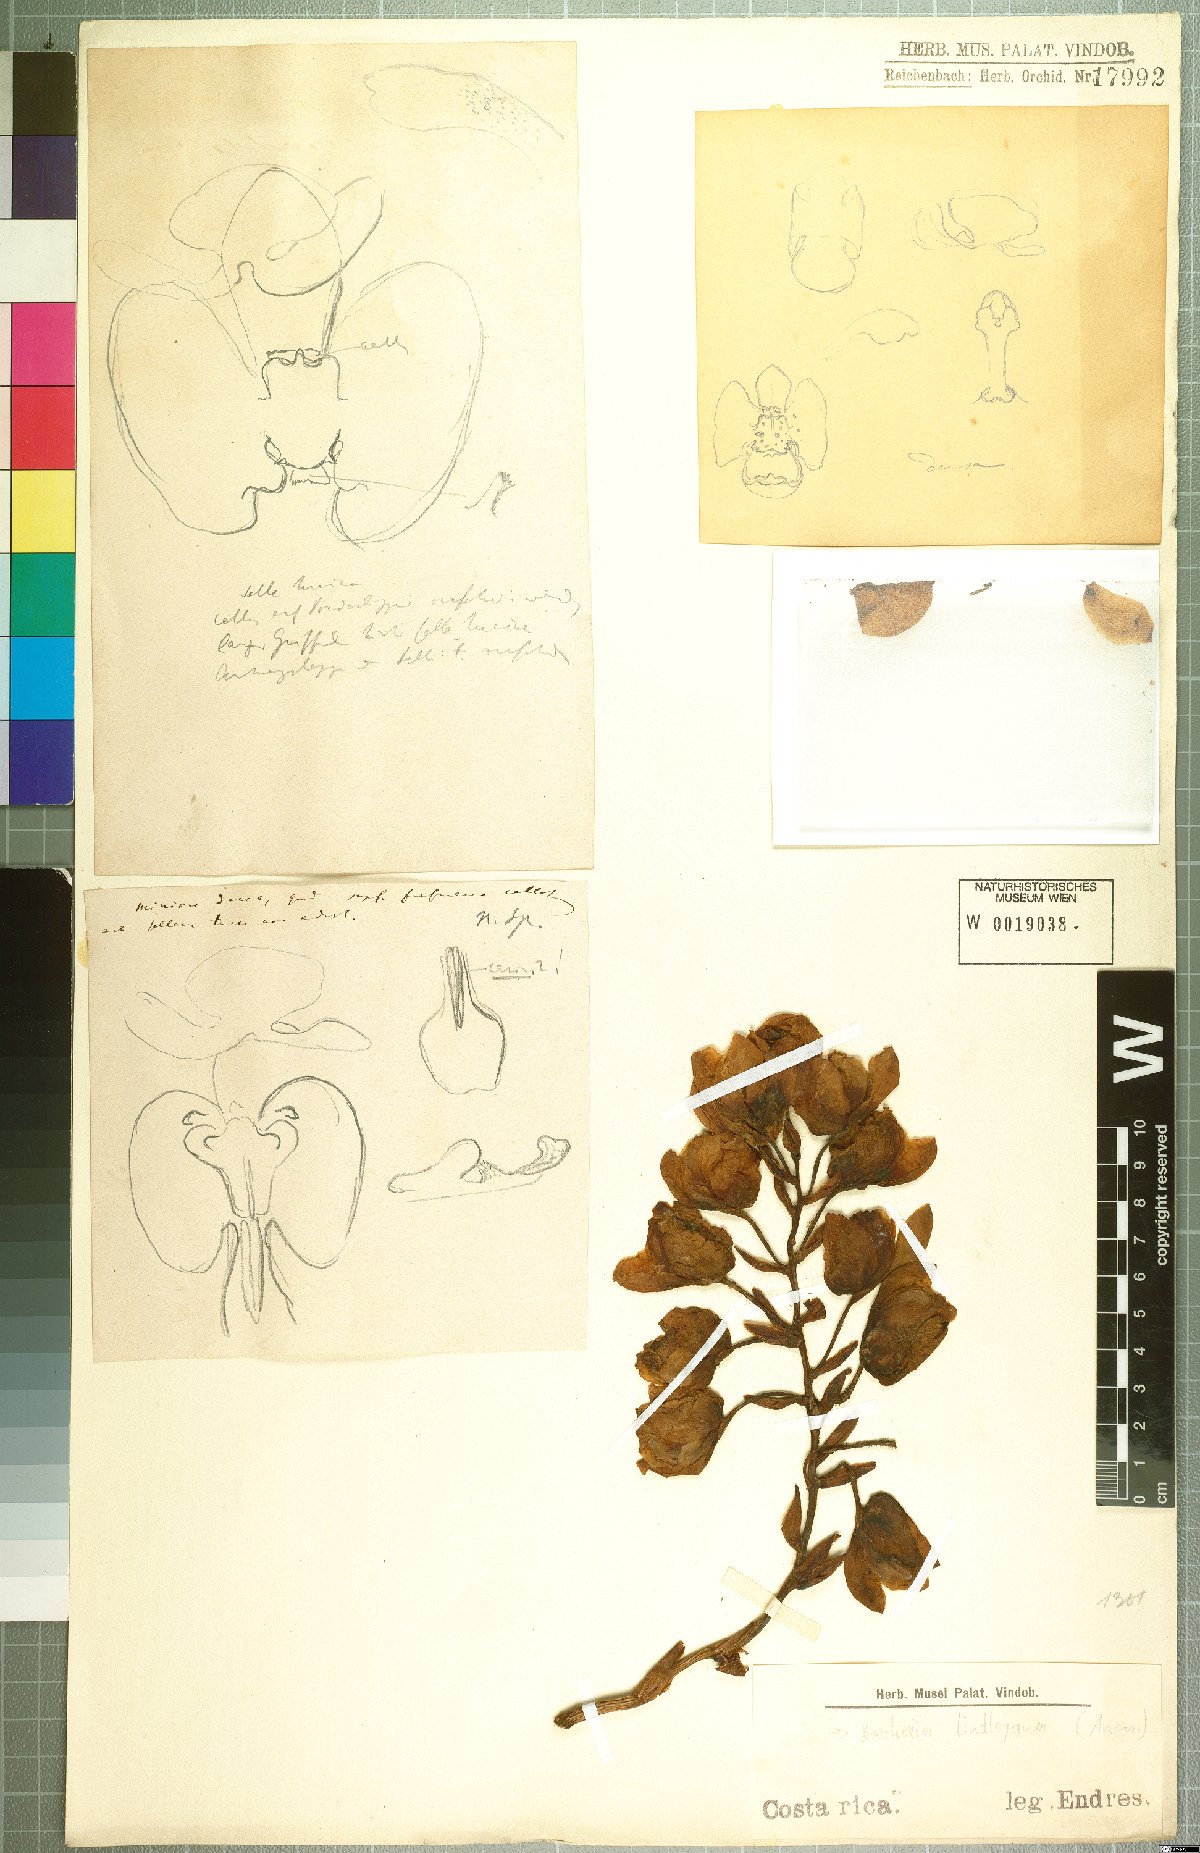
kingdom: Plantae
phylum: Tracheophyta
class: Liliopsida
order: Asparagales
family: Orchidaceae
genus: Barkeria
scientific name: Barkeria lindleyana
